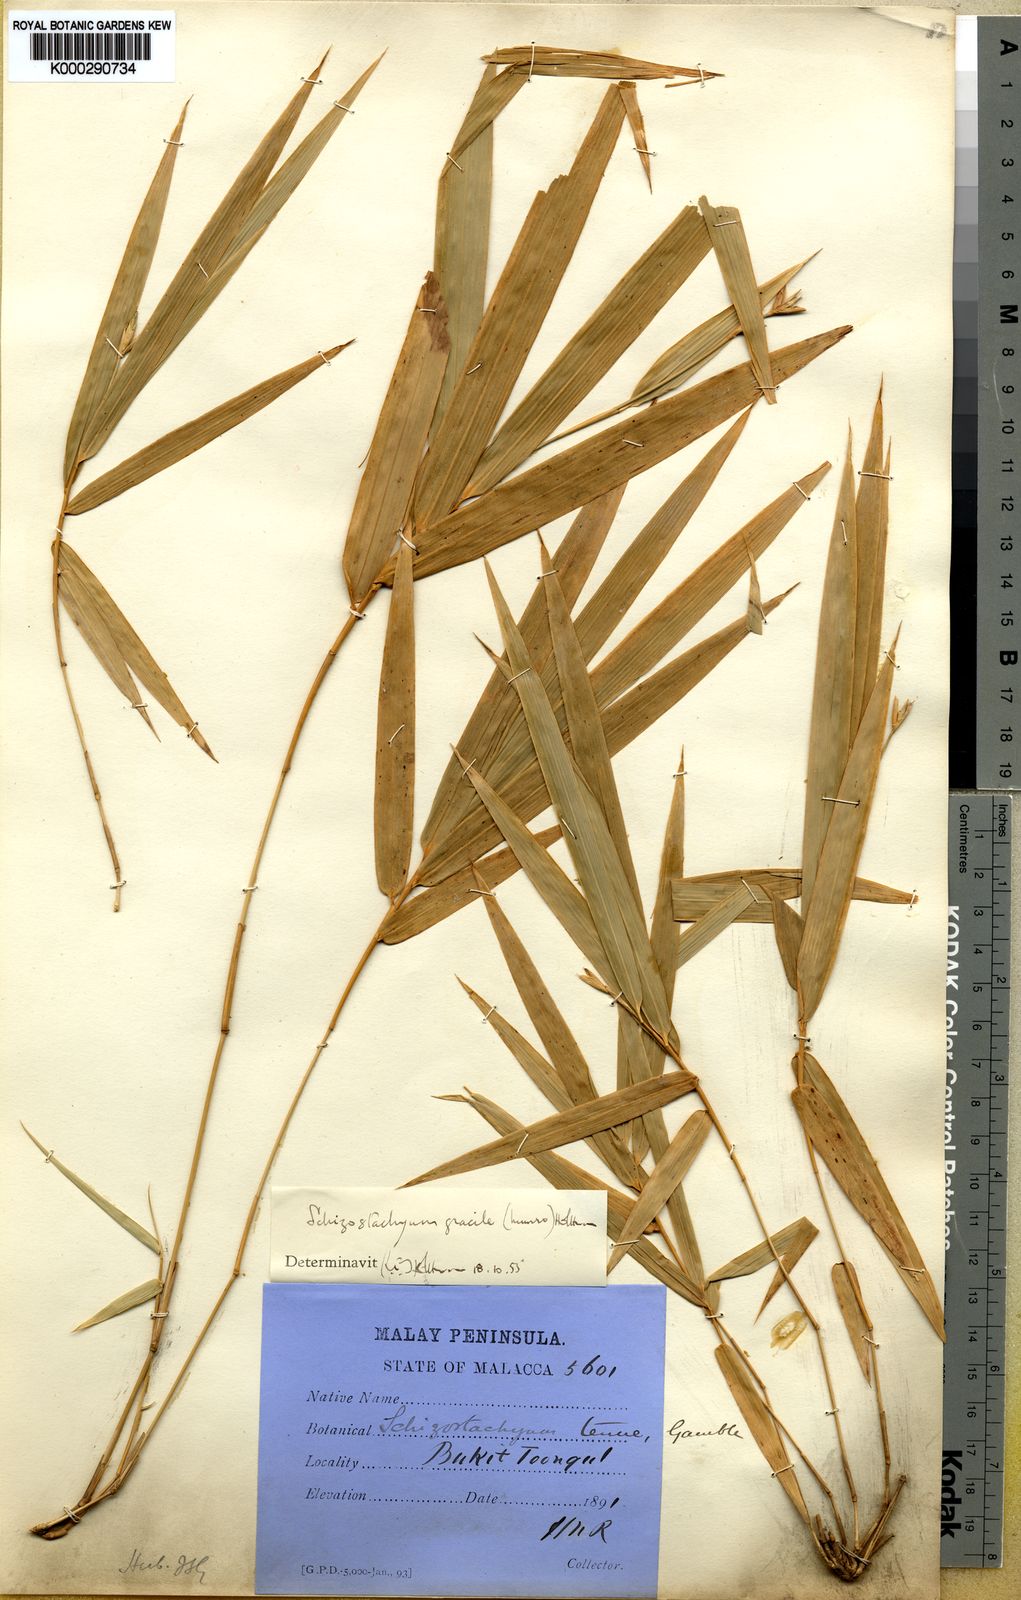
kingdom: Plantae
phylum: Tracheophyta
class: Liliopsida
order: Poales
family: Poaceae
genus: Schizostachyum
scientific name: Schizostachyum gracile
